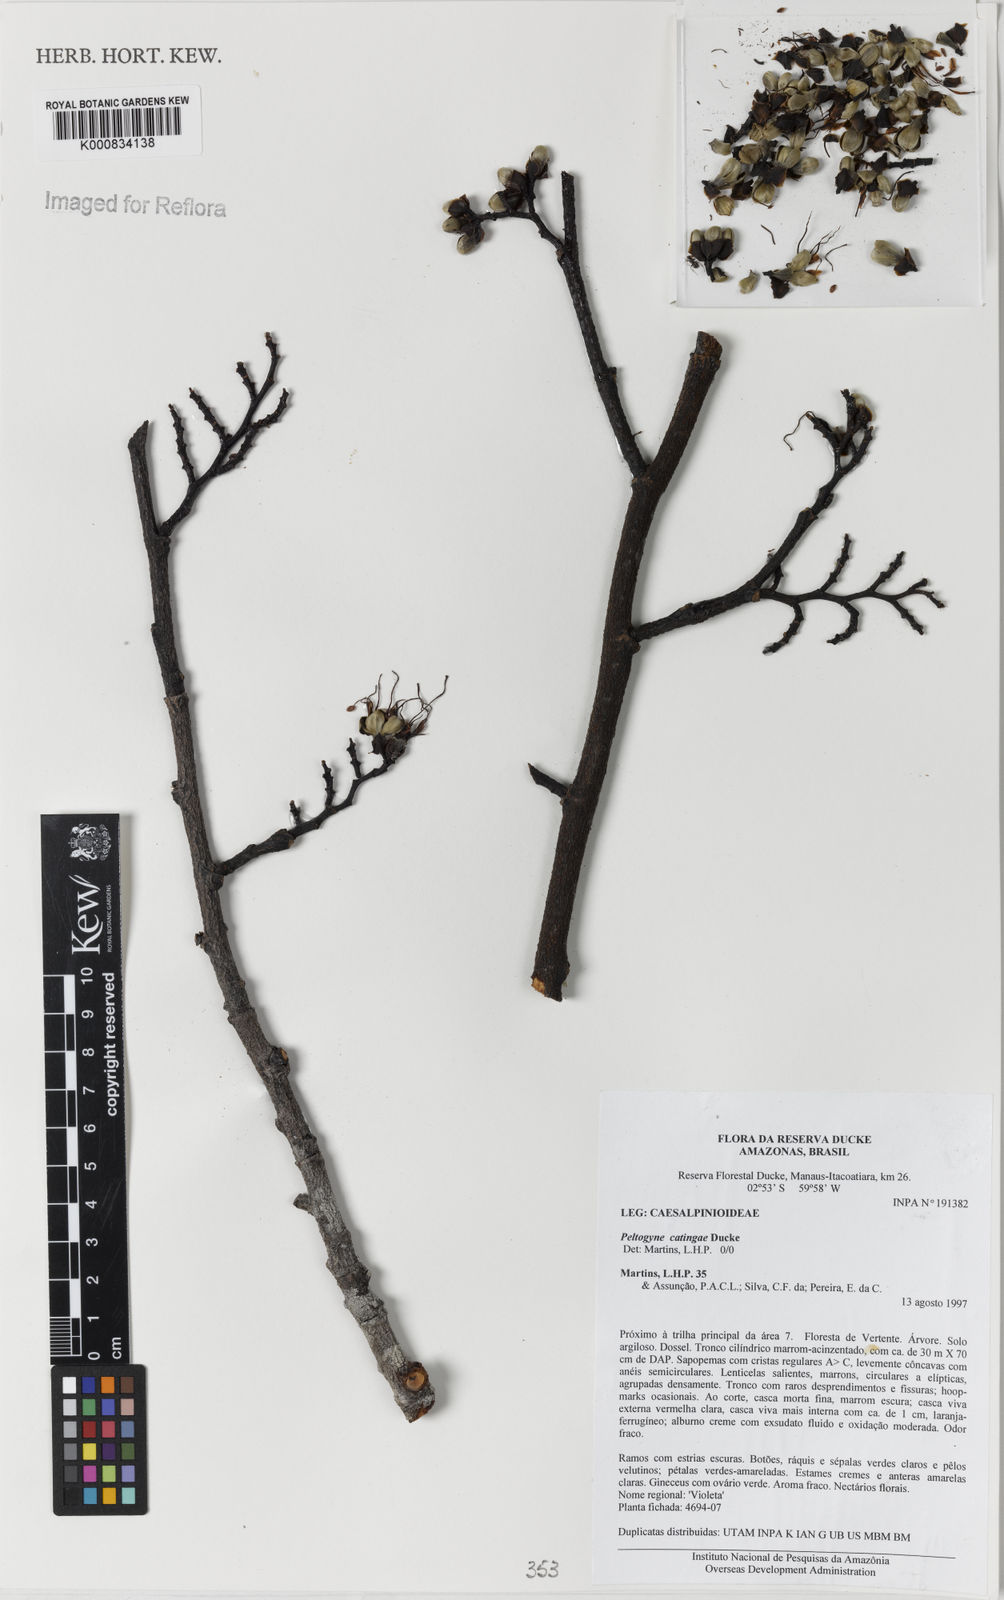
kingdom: Plantae
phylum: Tracheophyta
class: Magnoliopsida
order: Fabales
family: Fabaceae
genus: Peltogyne
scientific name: Peltogyne chrysopis
